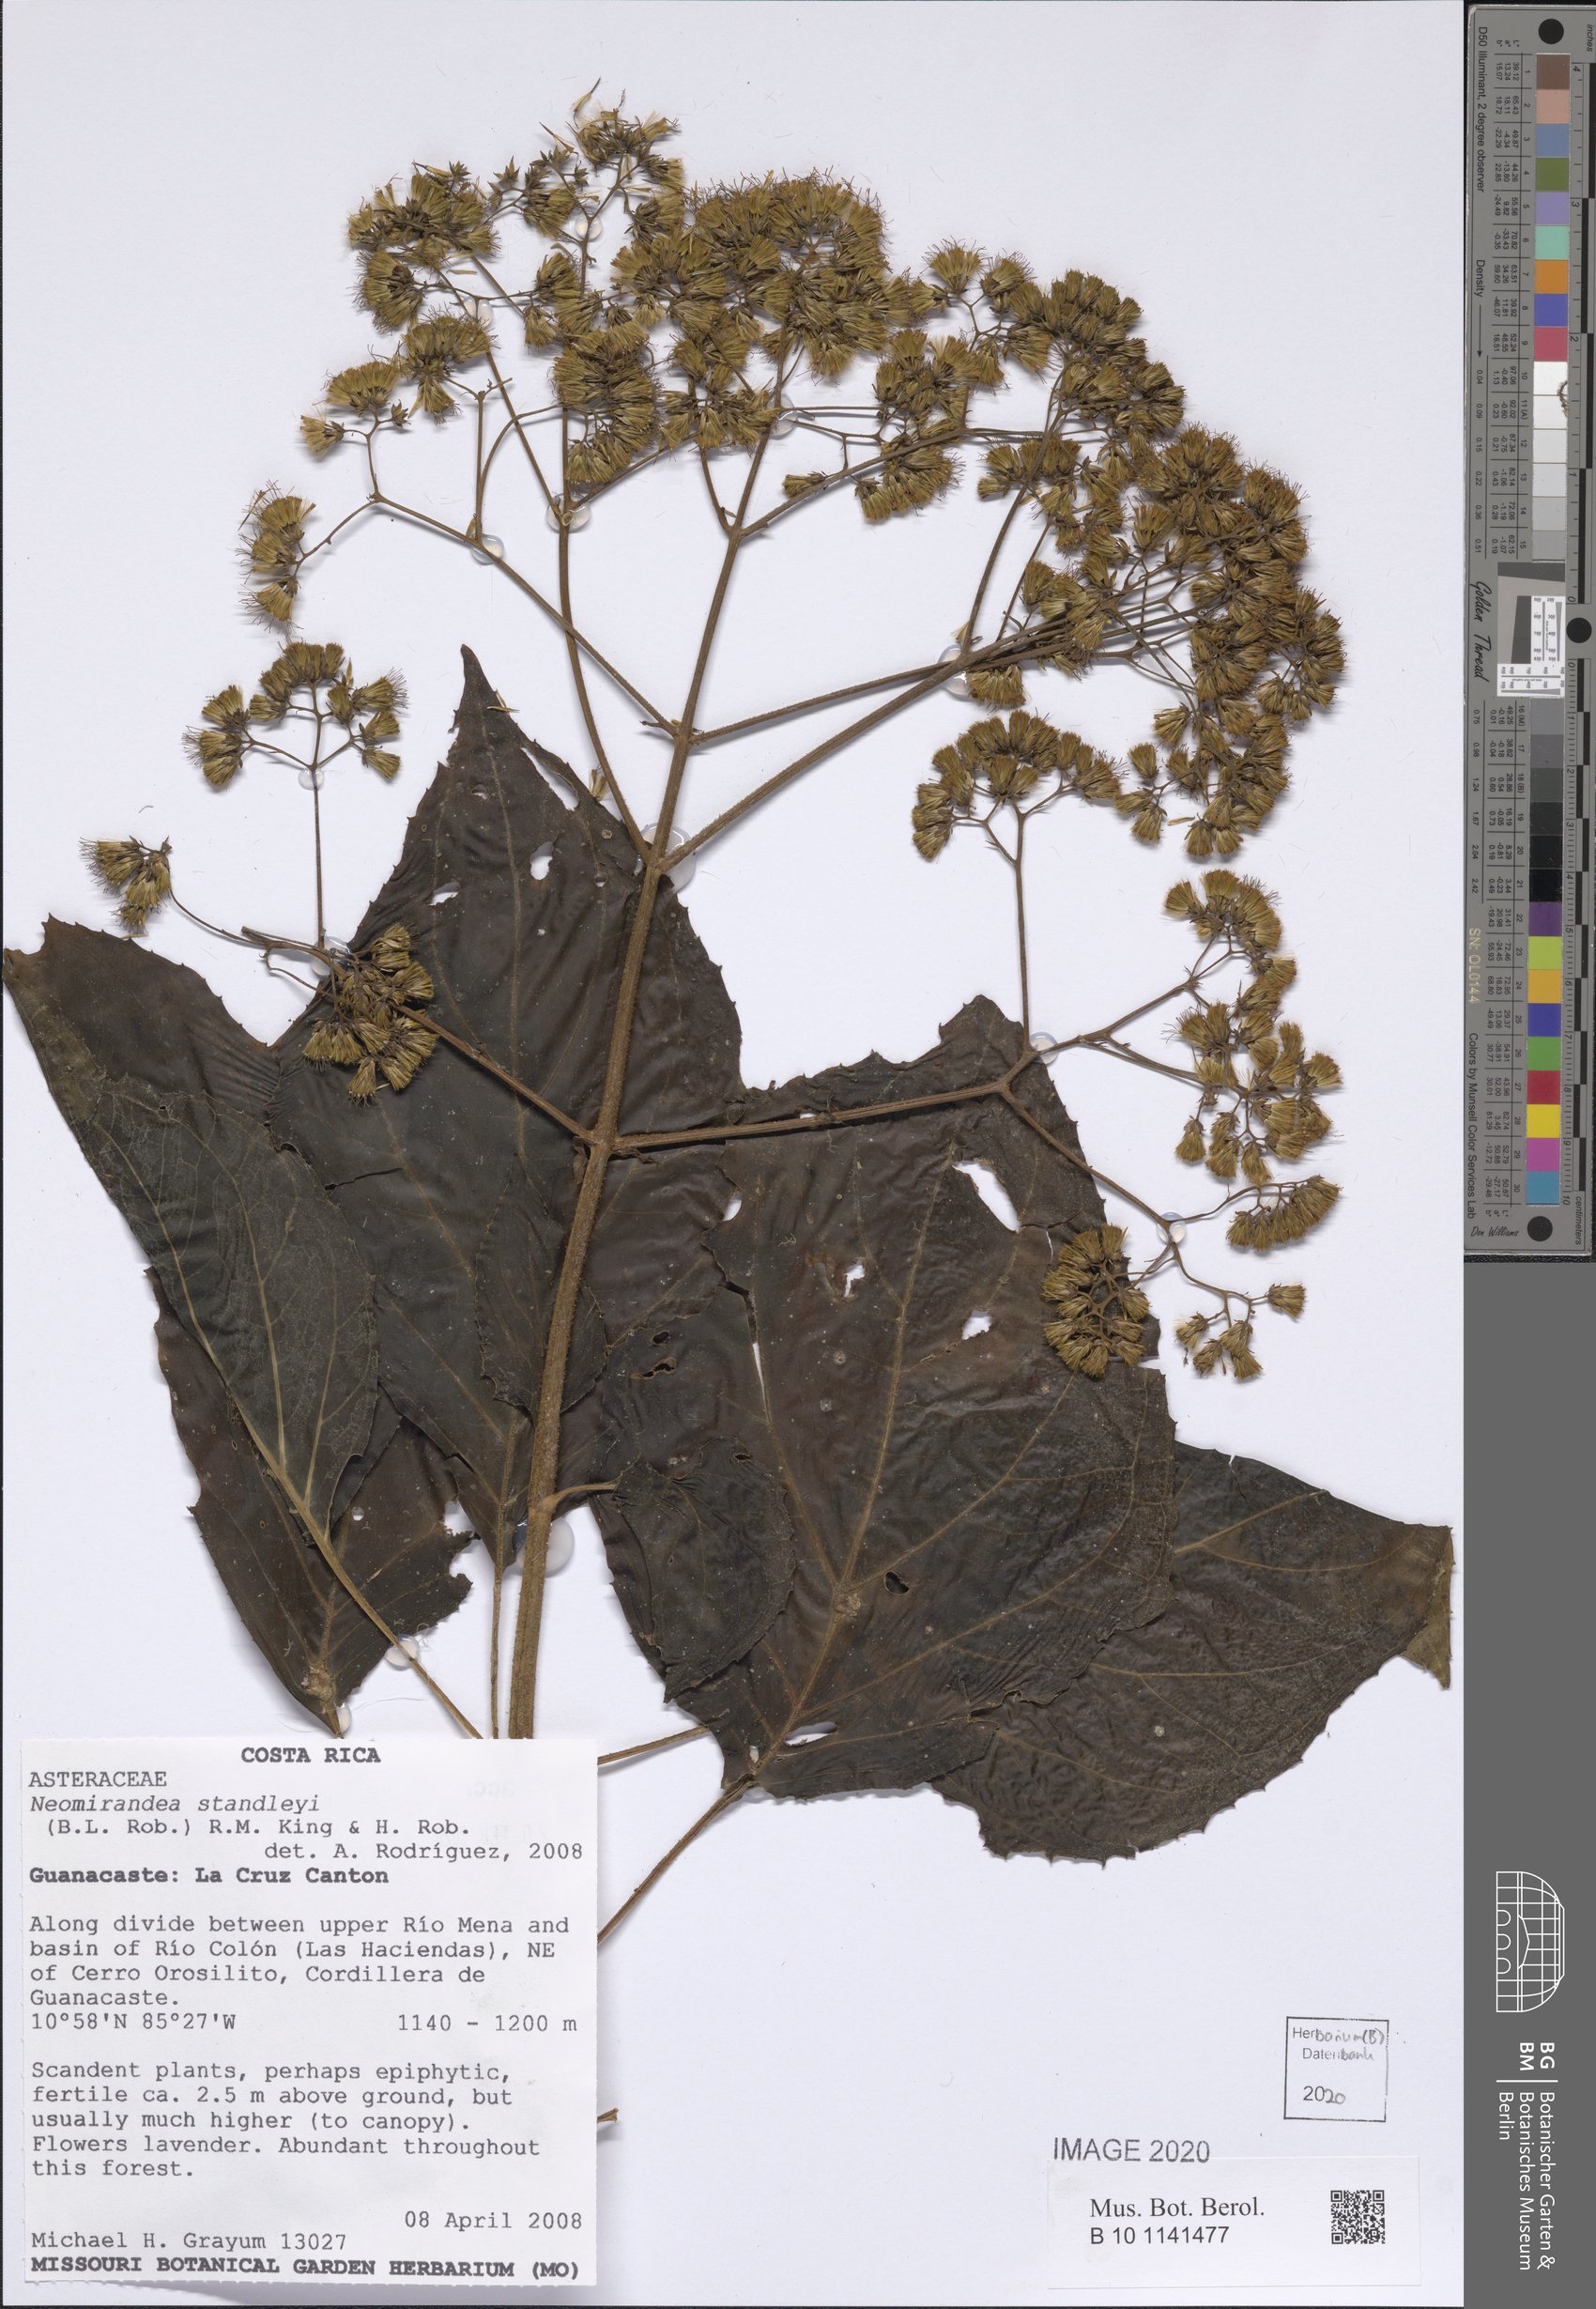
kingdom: Plantae
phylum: Tracheophyta
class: Magnoliopsida
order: Asterales
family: Asteraceae
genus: Neomirandea
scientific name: Neomirandea standleyi
